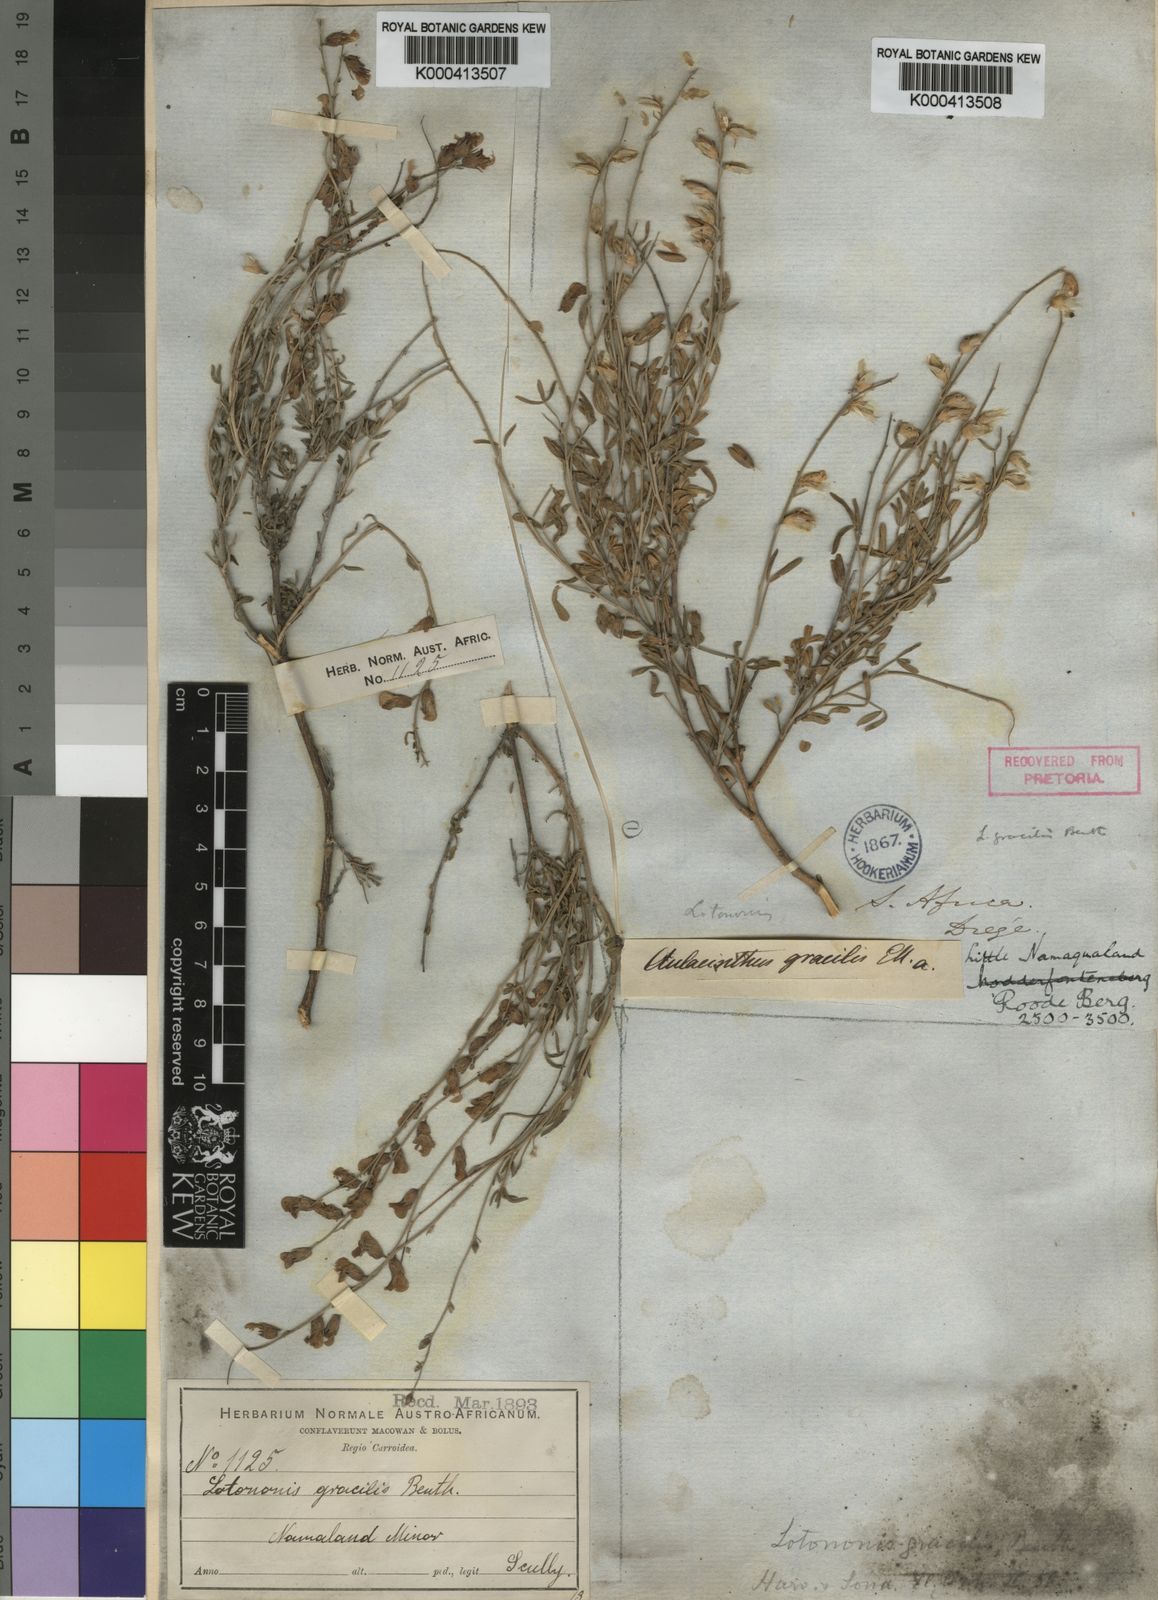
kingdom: Plantae
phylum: Tracheophyta
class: Magnoliopsida
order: Fabales
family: Fabaceae
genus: Lotononis
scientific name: Lotononis densa
